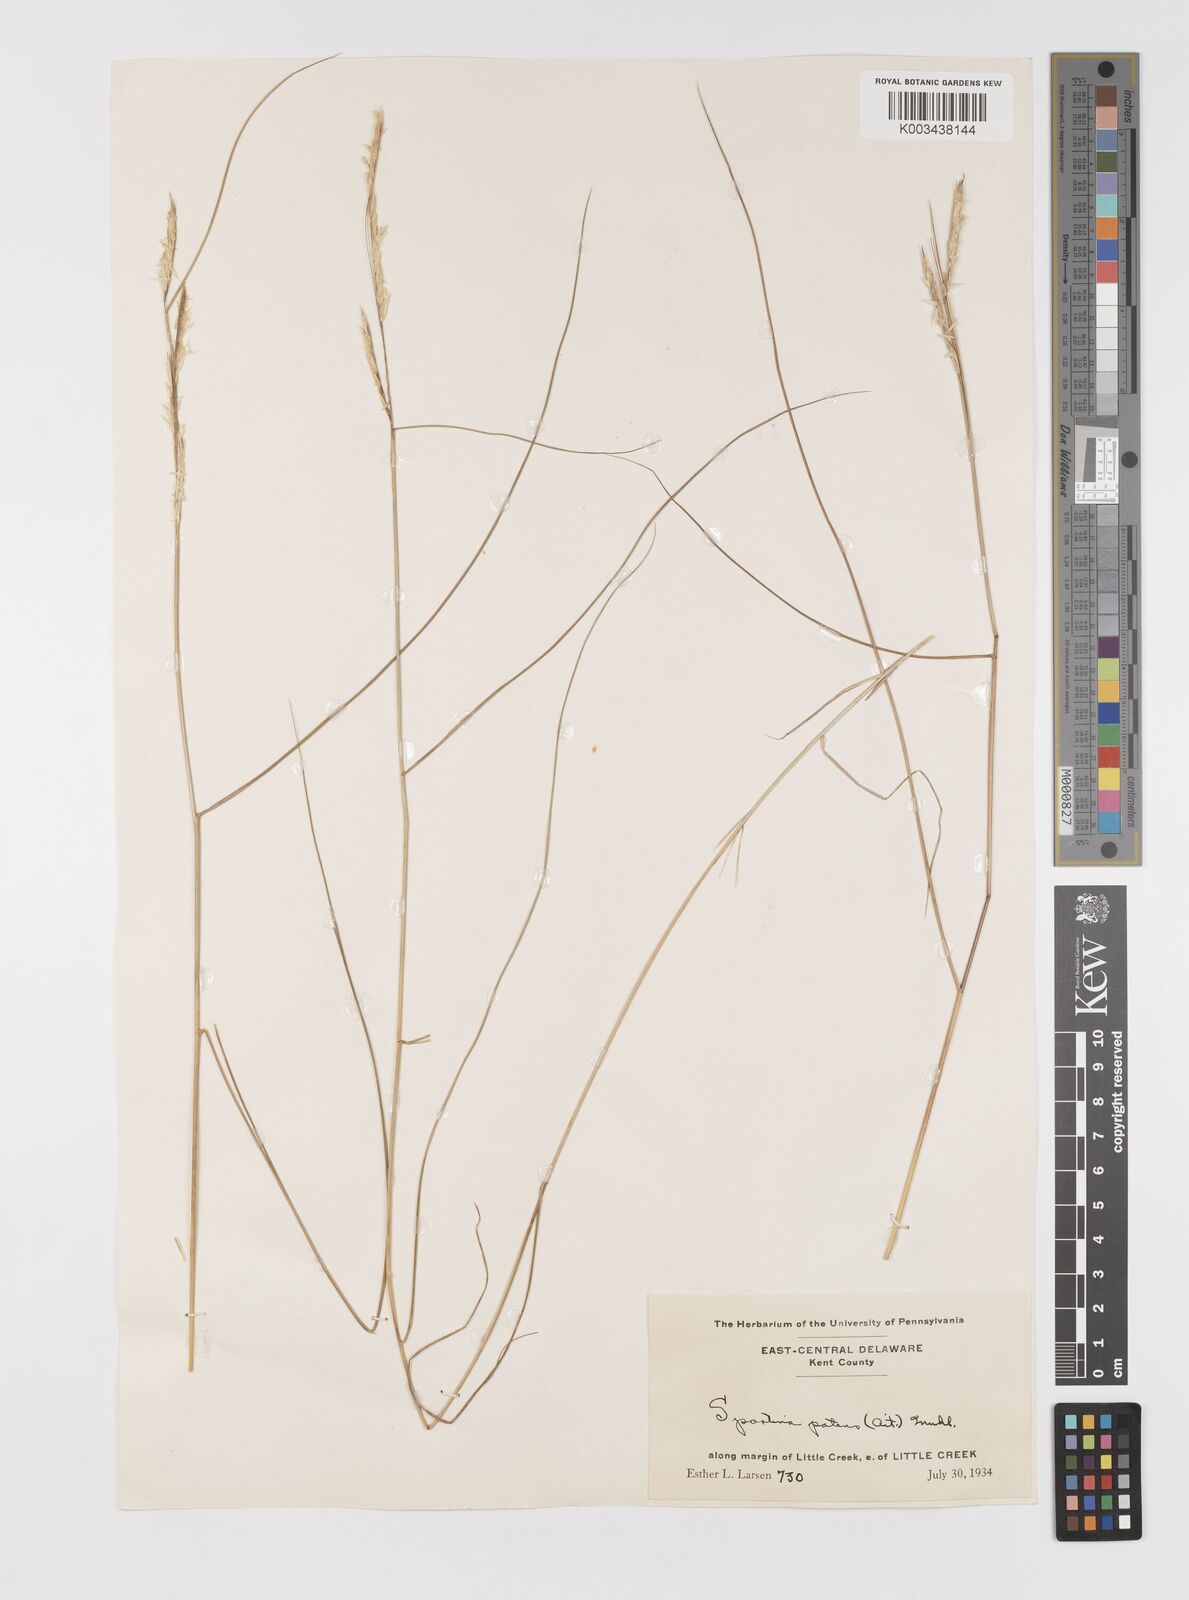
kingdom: Plantae
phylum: Tracheophyta
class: Liliopsida
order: Poales
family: Poaceae
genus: Sporobolus
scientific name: Sporobolus pumilus
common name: Highwater grass
